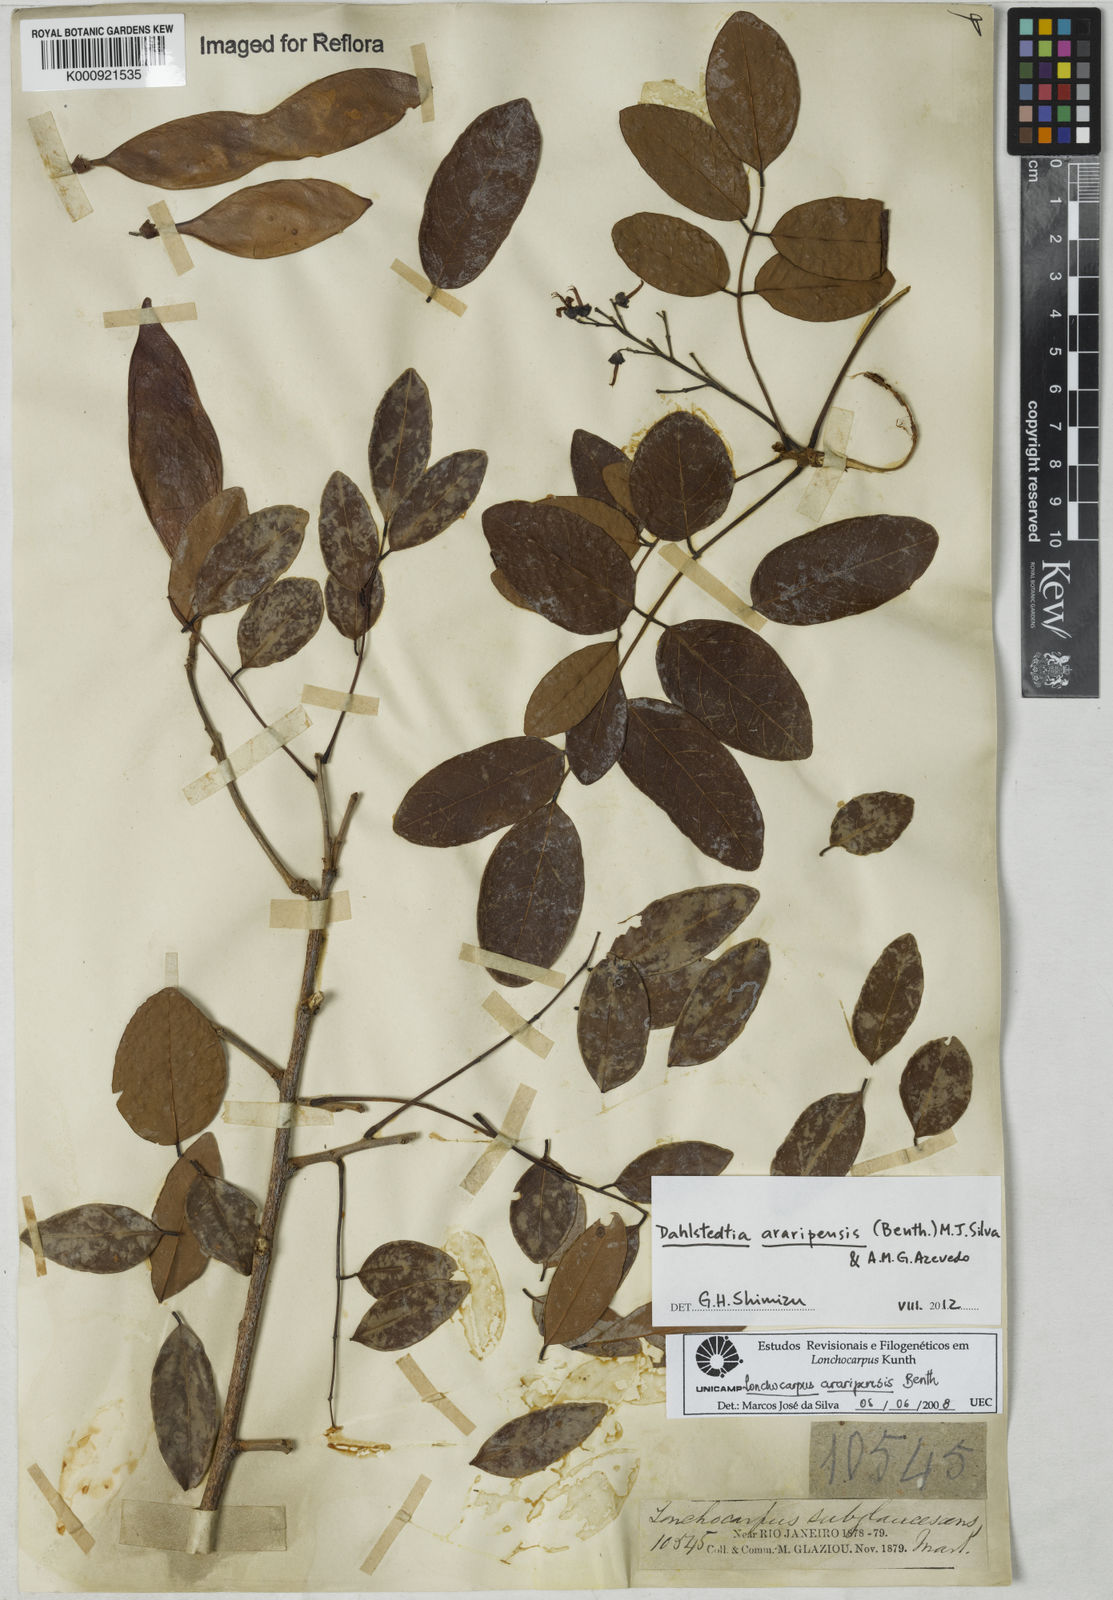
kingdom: Plantae
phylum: Tracheophyta
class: Magnoliopsida
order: Fabales
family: Fabaceae
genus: Dahlstedtia
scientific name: Dahlstedtia araripensis
